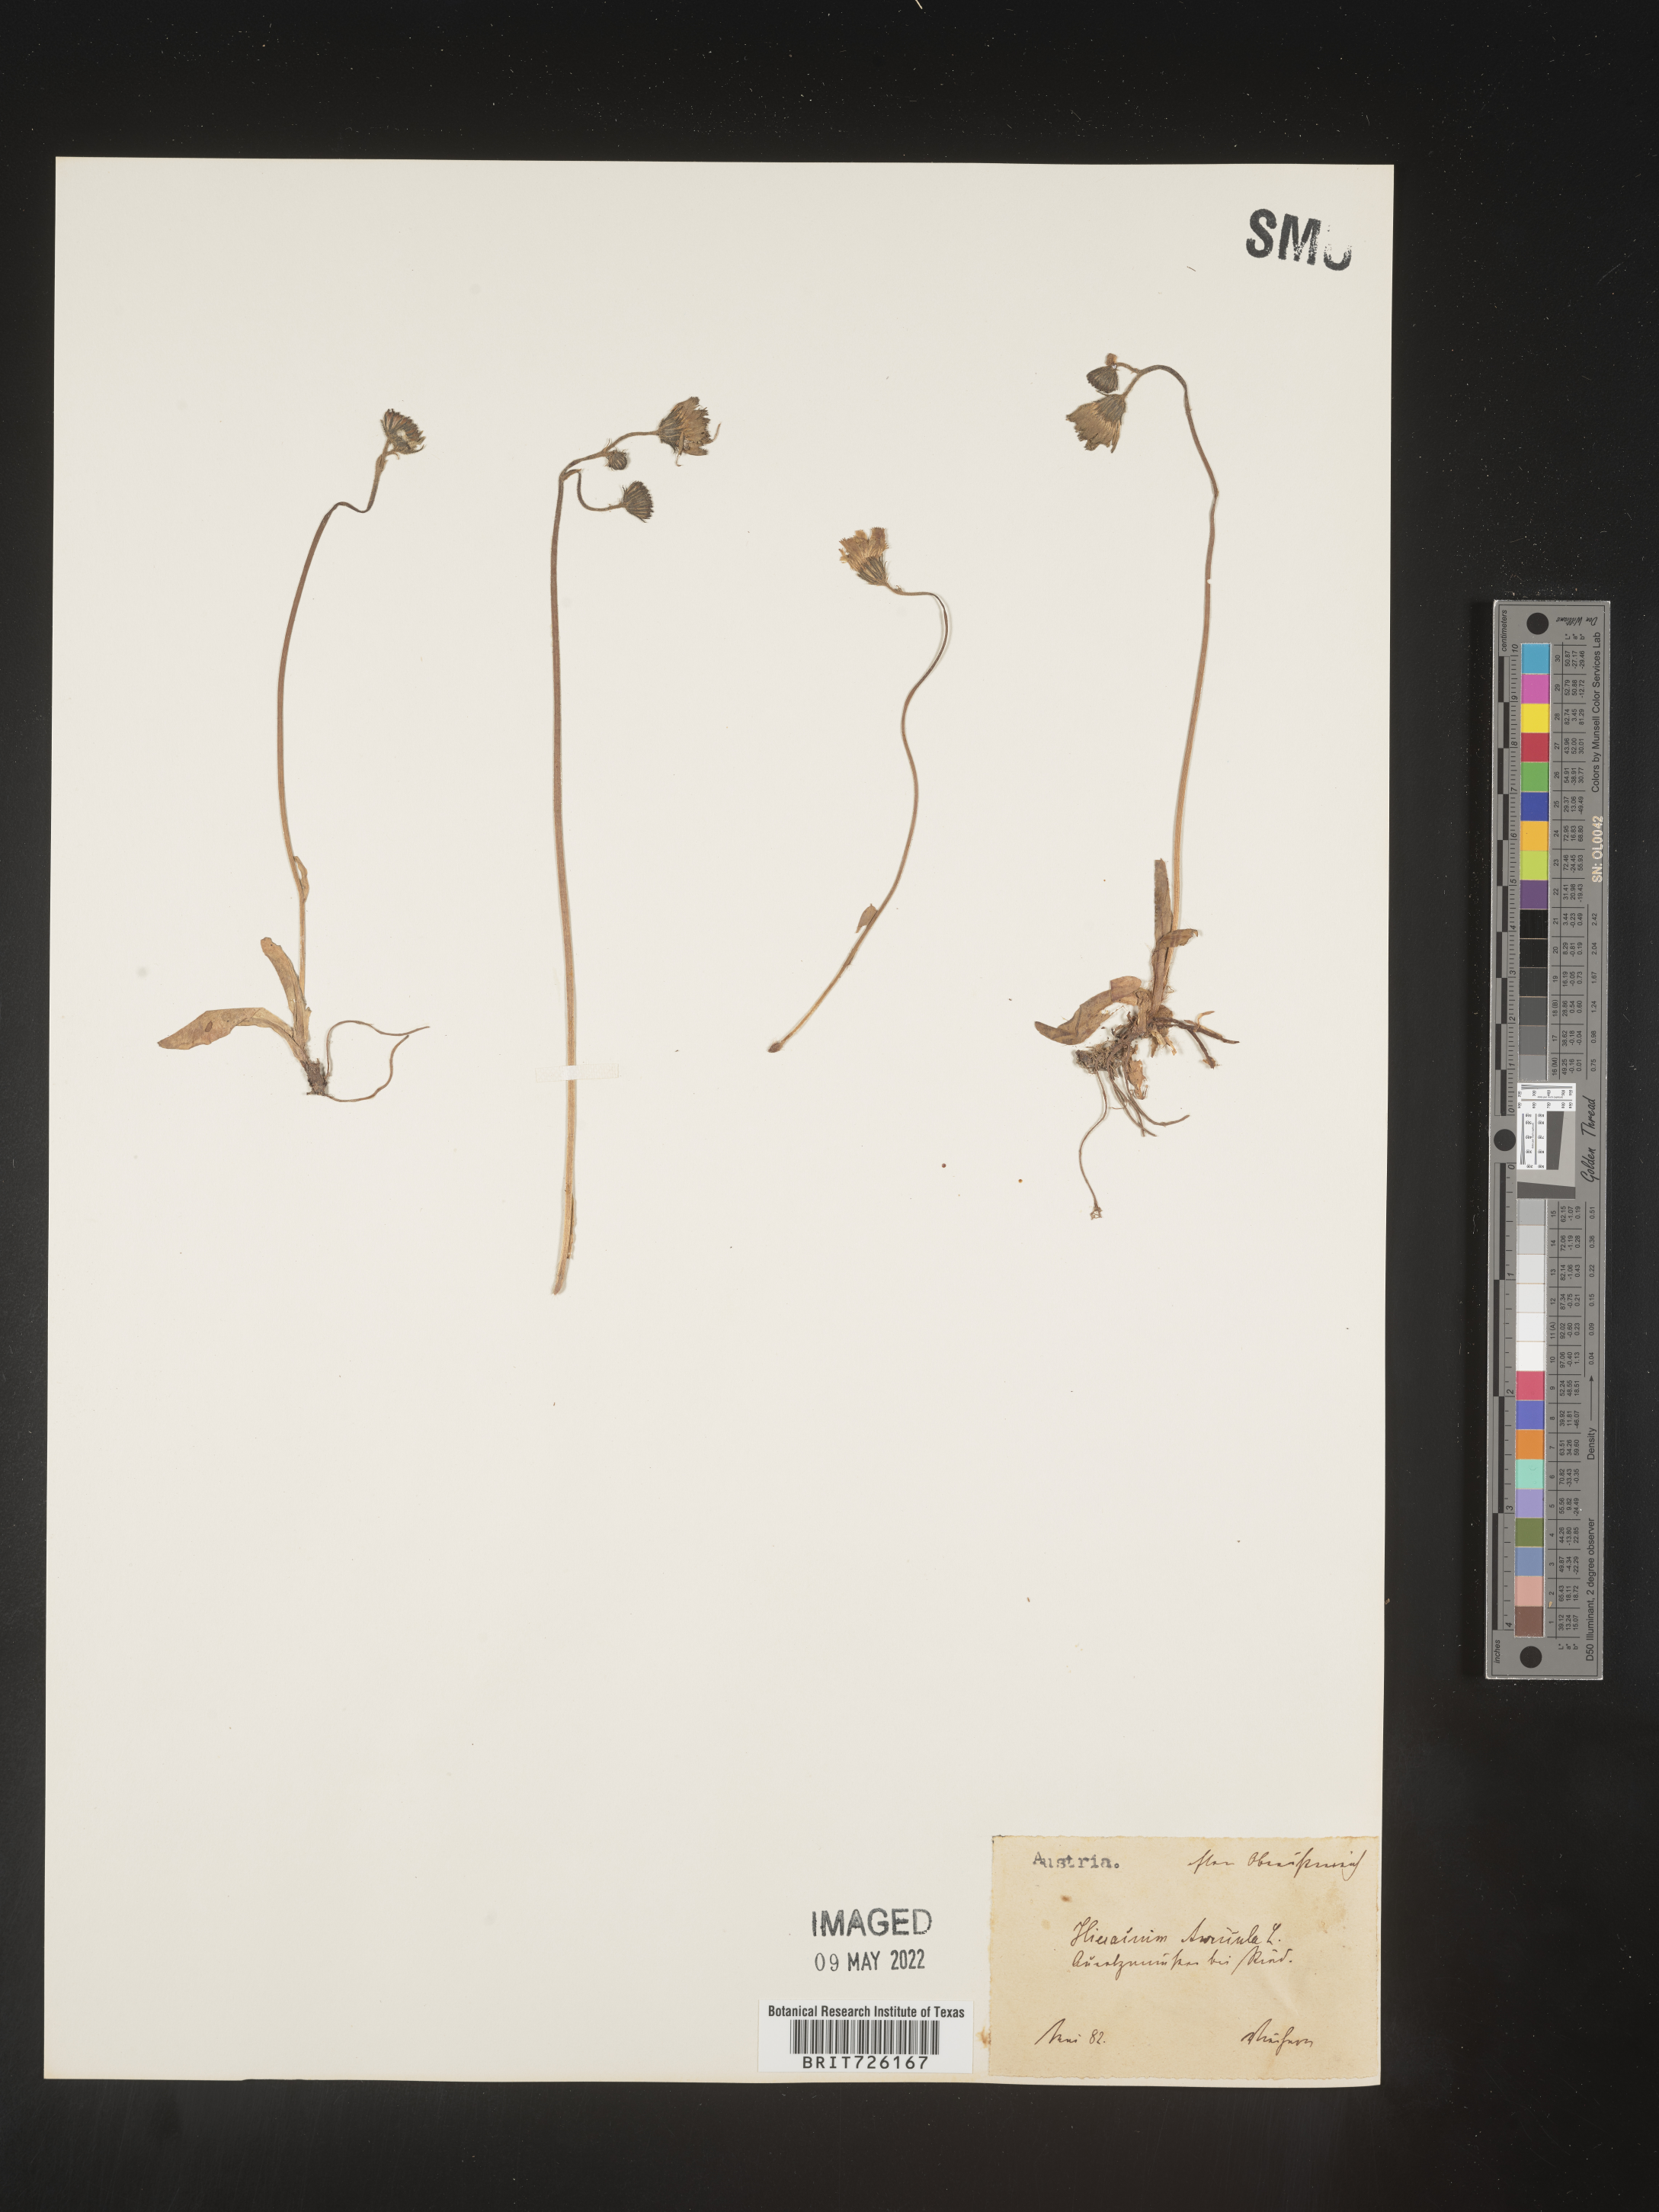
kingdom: Plantae
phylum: Tracheophyta
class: Magnoliopsida
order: Asterales
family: Asteraceae
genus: Hieracium
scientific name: Hieracium
